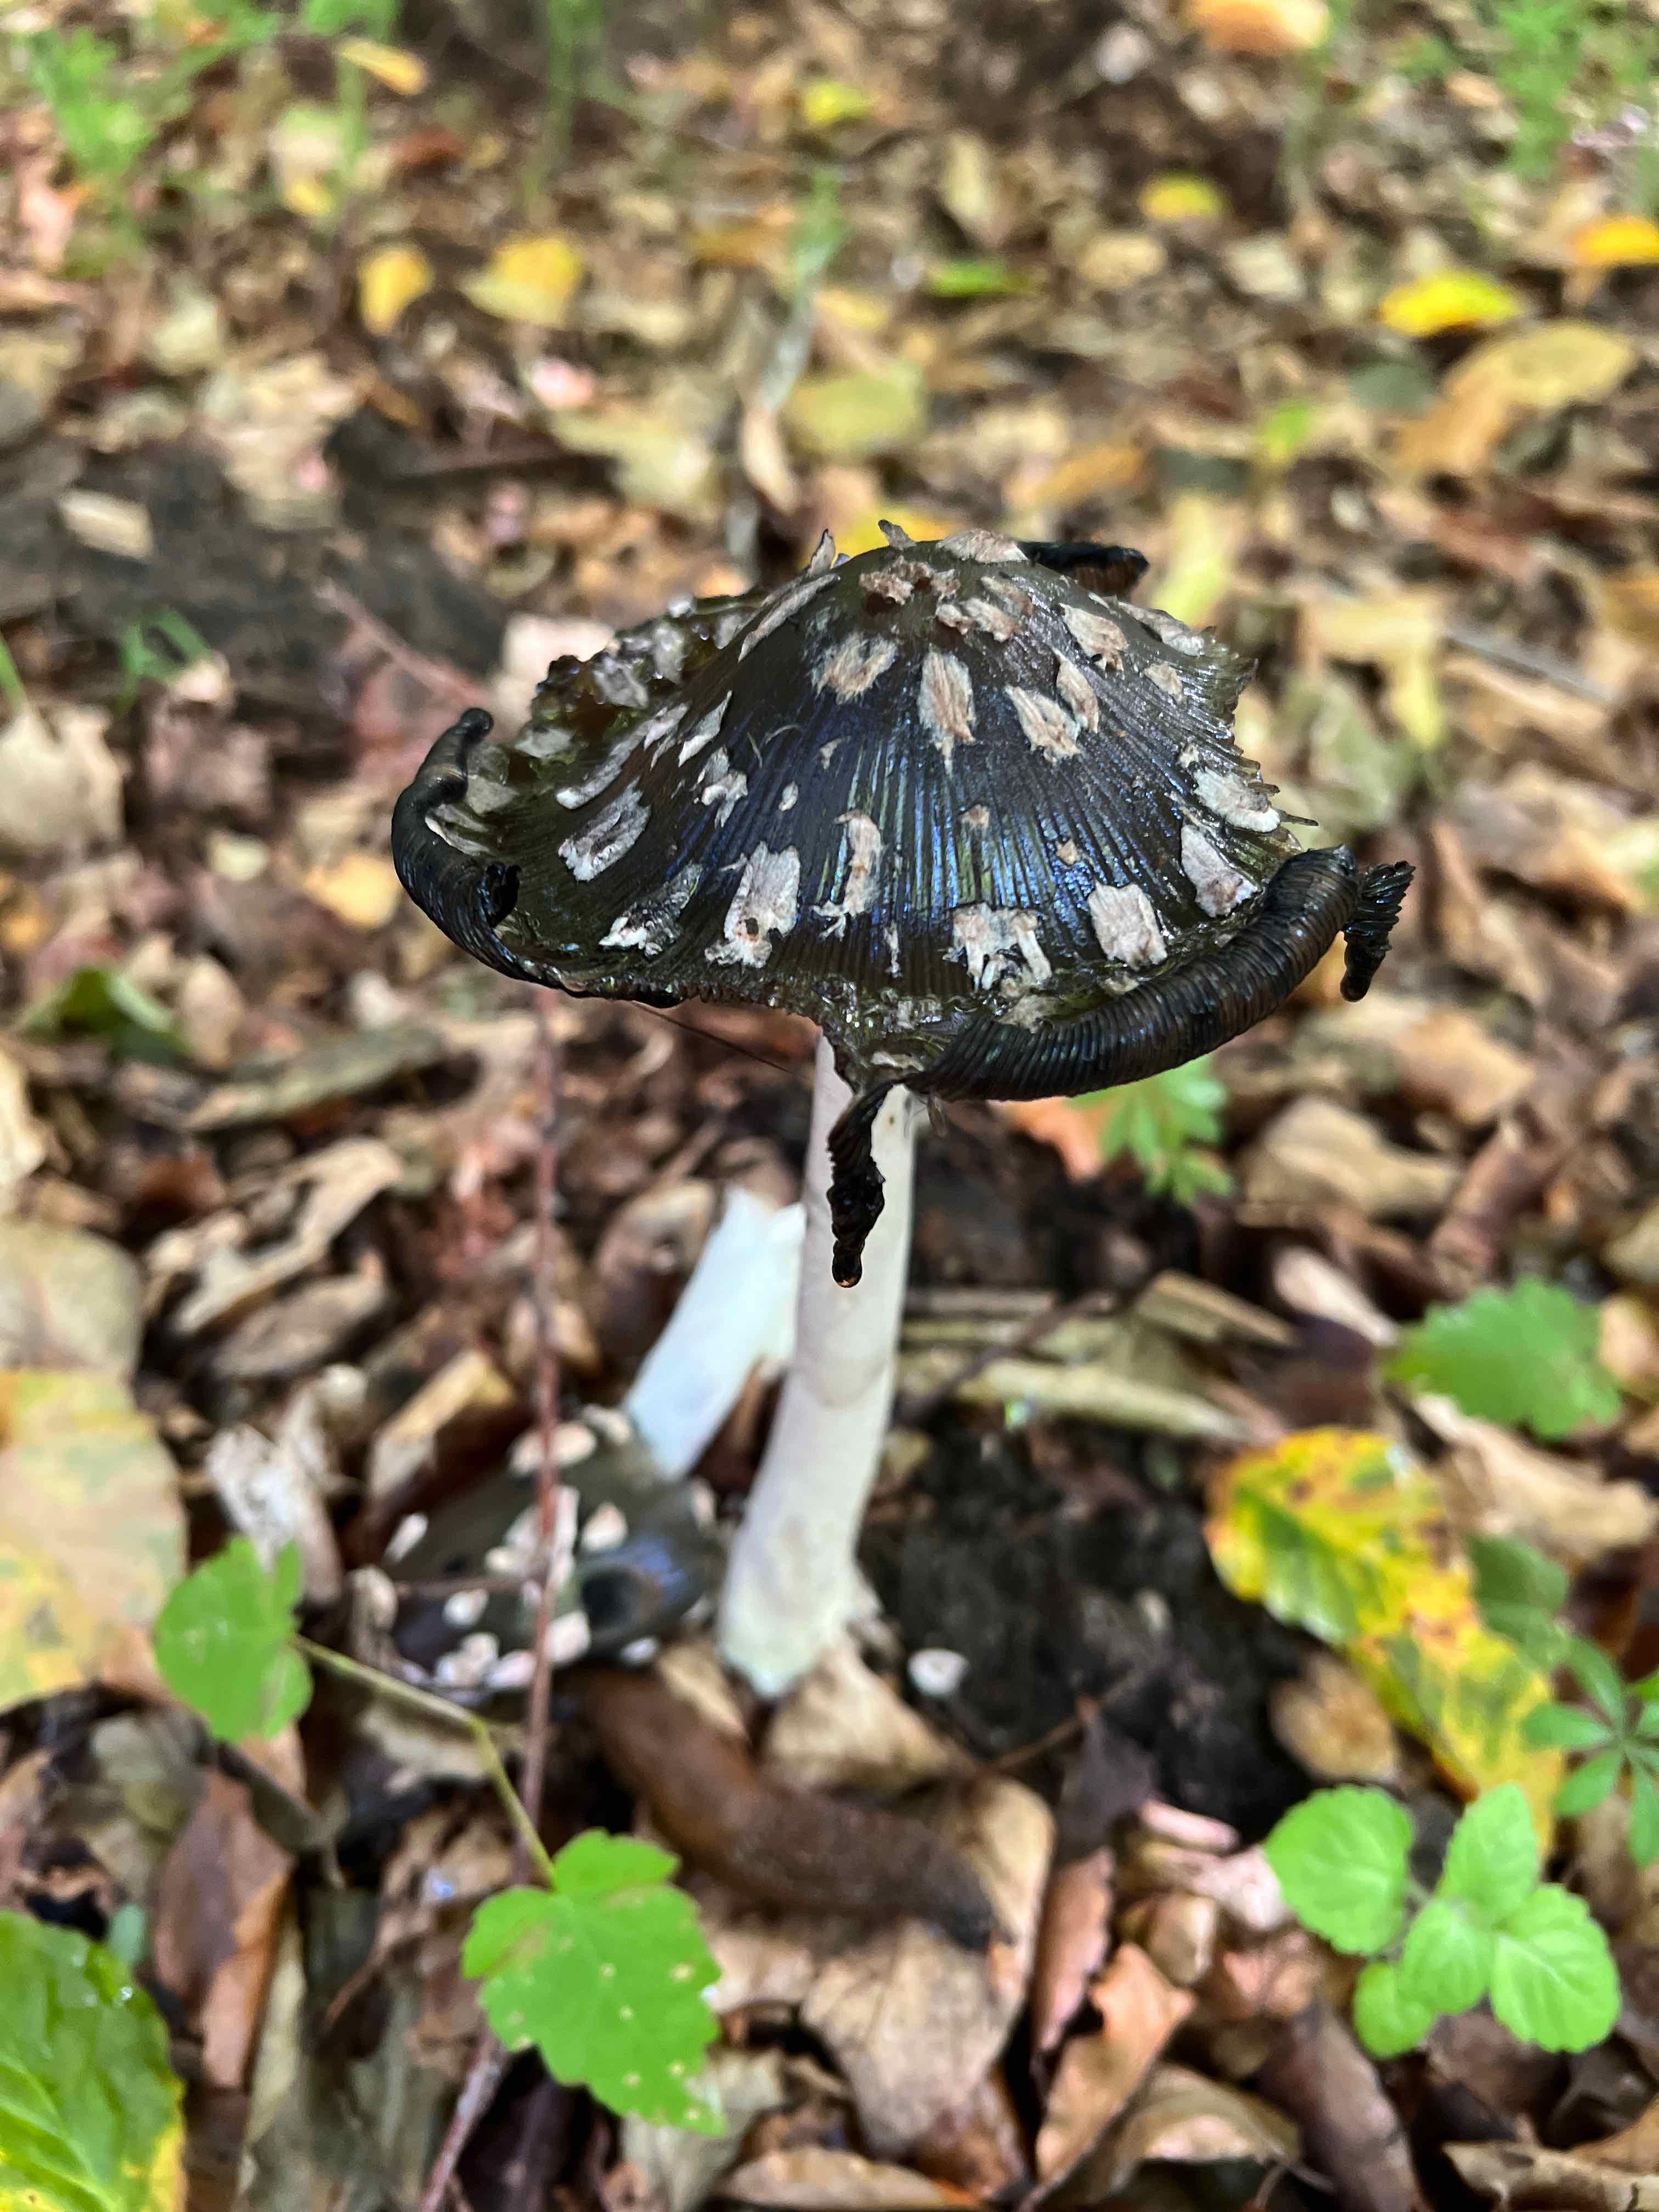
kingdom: Fungi
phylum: Basidiomycota
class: Agaricomycetes
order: Agaricales
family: Psathyrellaceae
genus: Coprinopsis
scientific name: Coprinopsis picacea
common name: skade-blækhat
